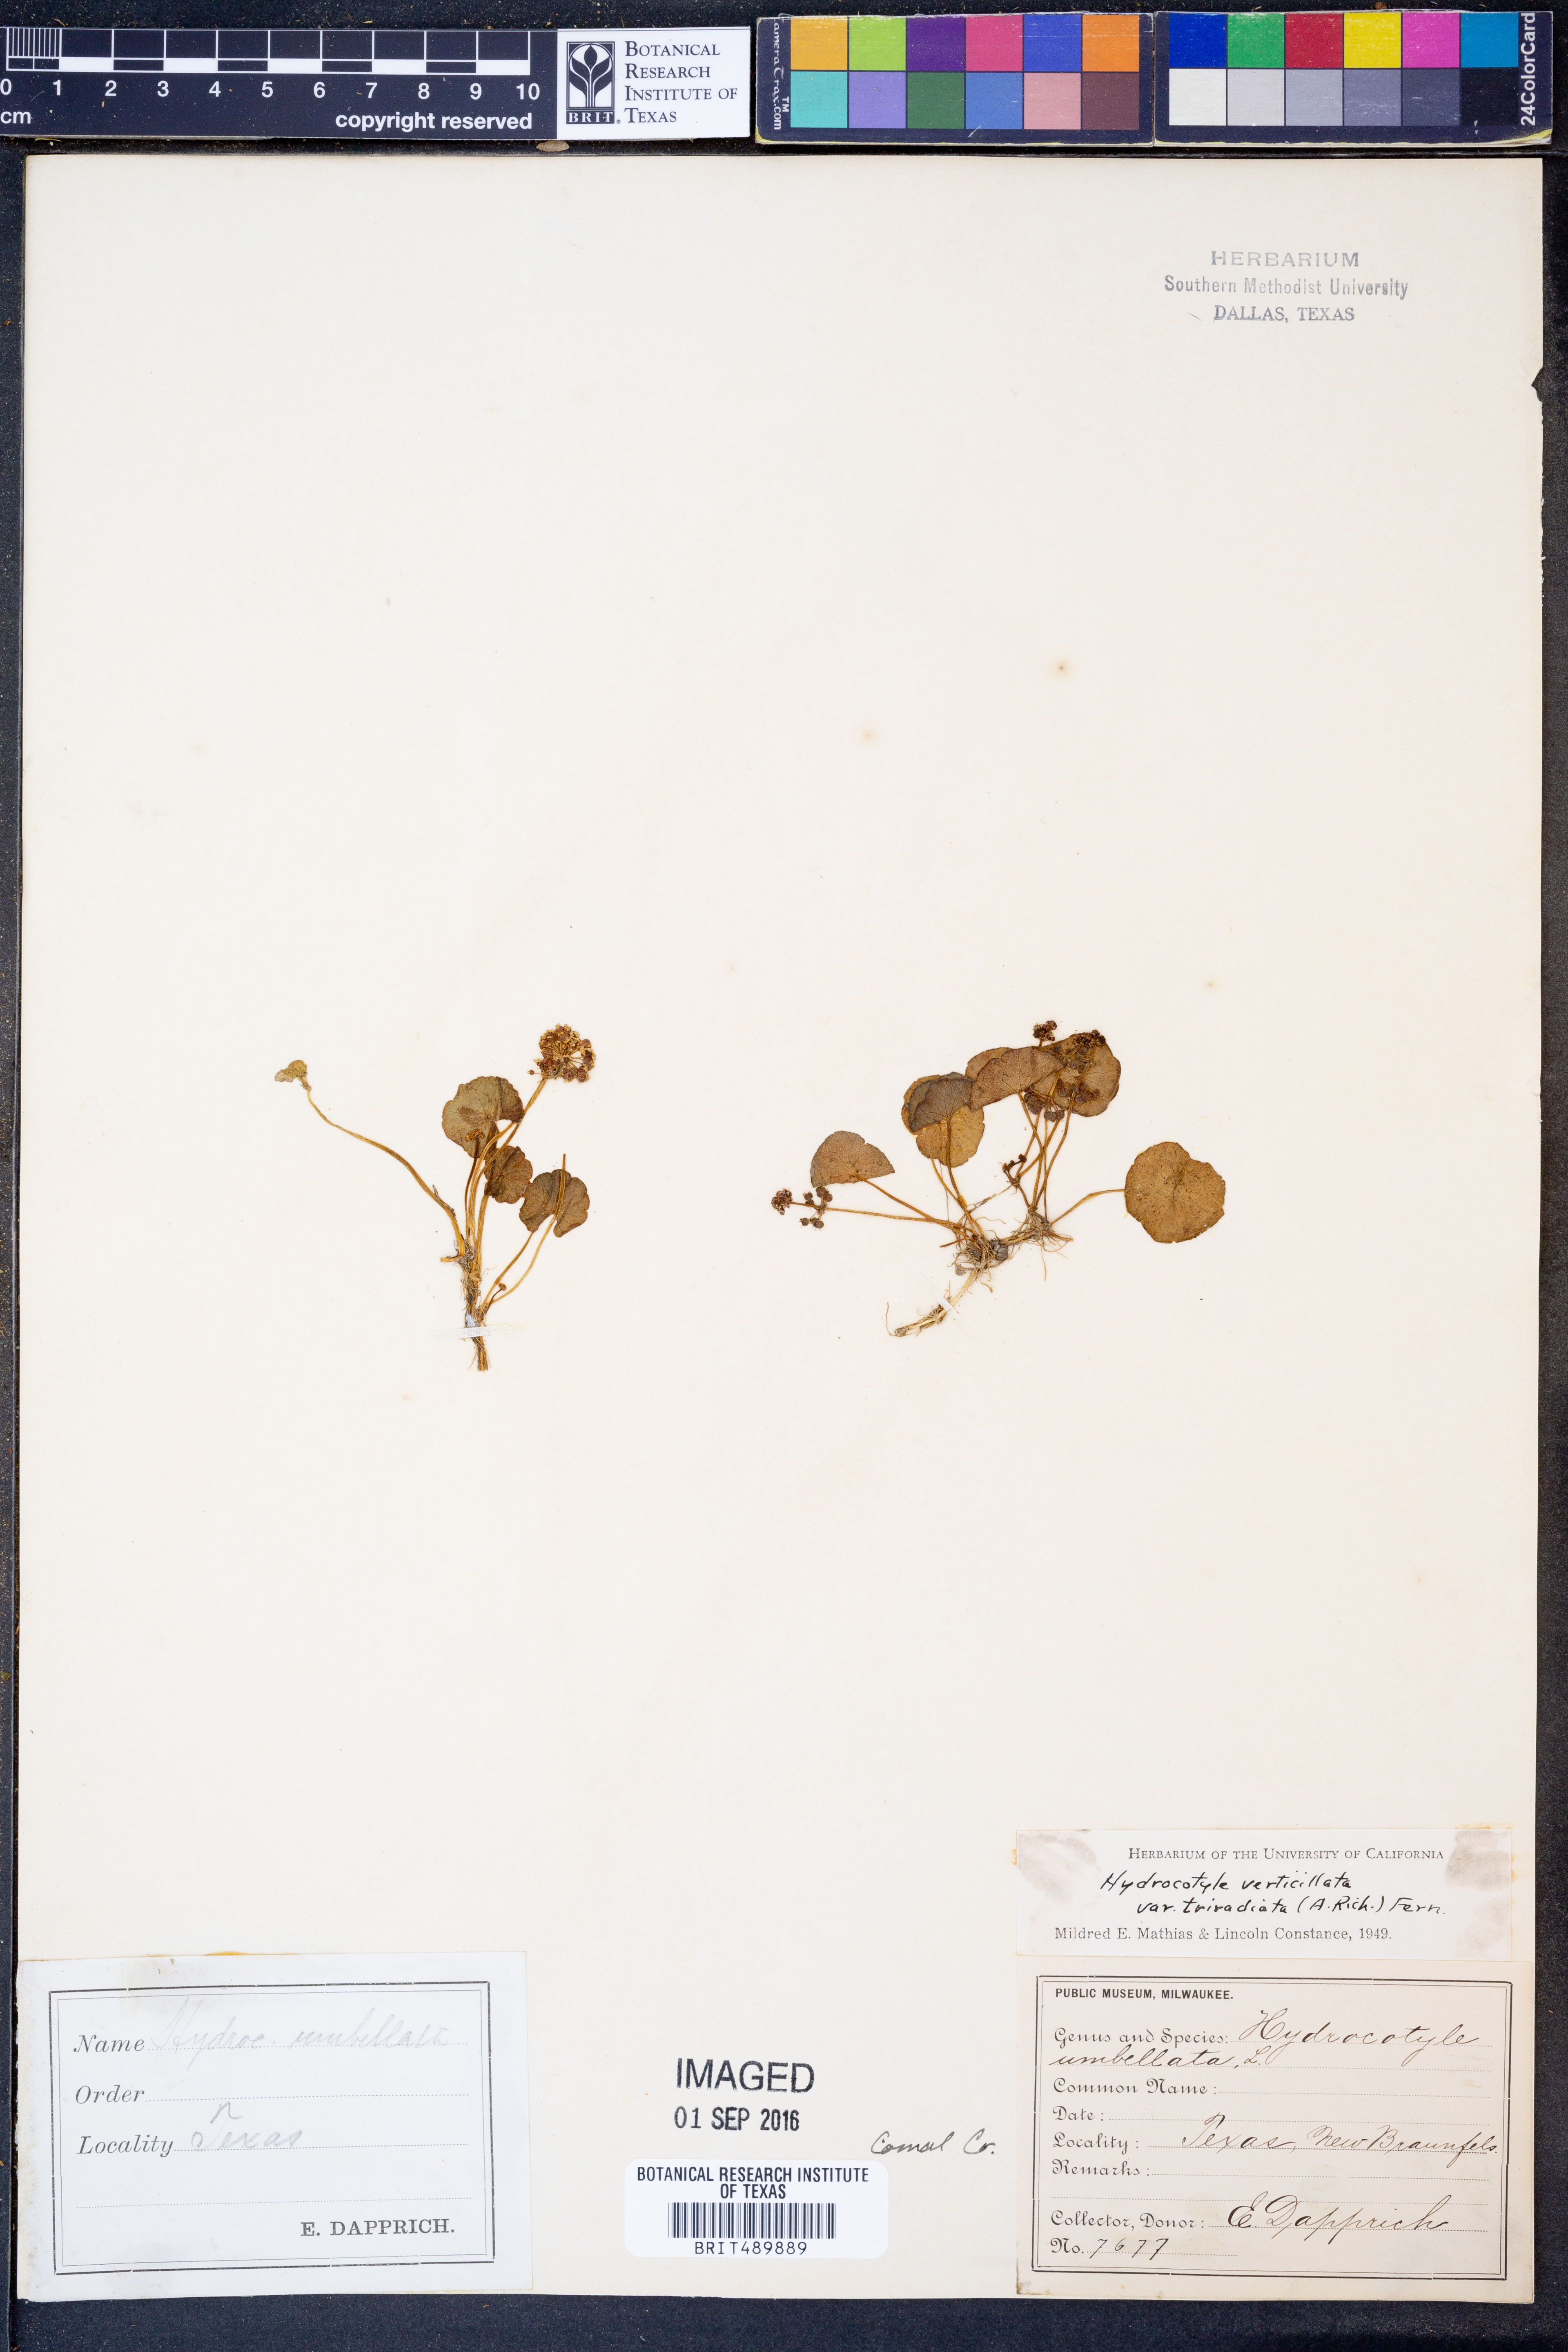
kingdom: Plantae
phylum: Tracheophyta
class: Magnoliopsida
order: Apiales
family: Araliaceae
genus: Hydrocotyle
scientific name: Hydrocotyle bonariensis
